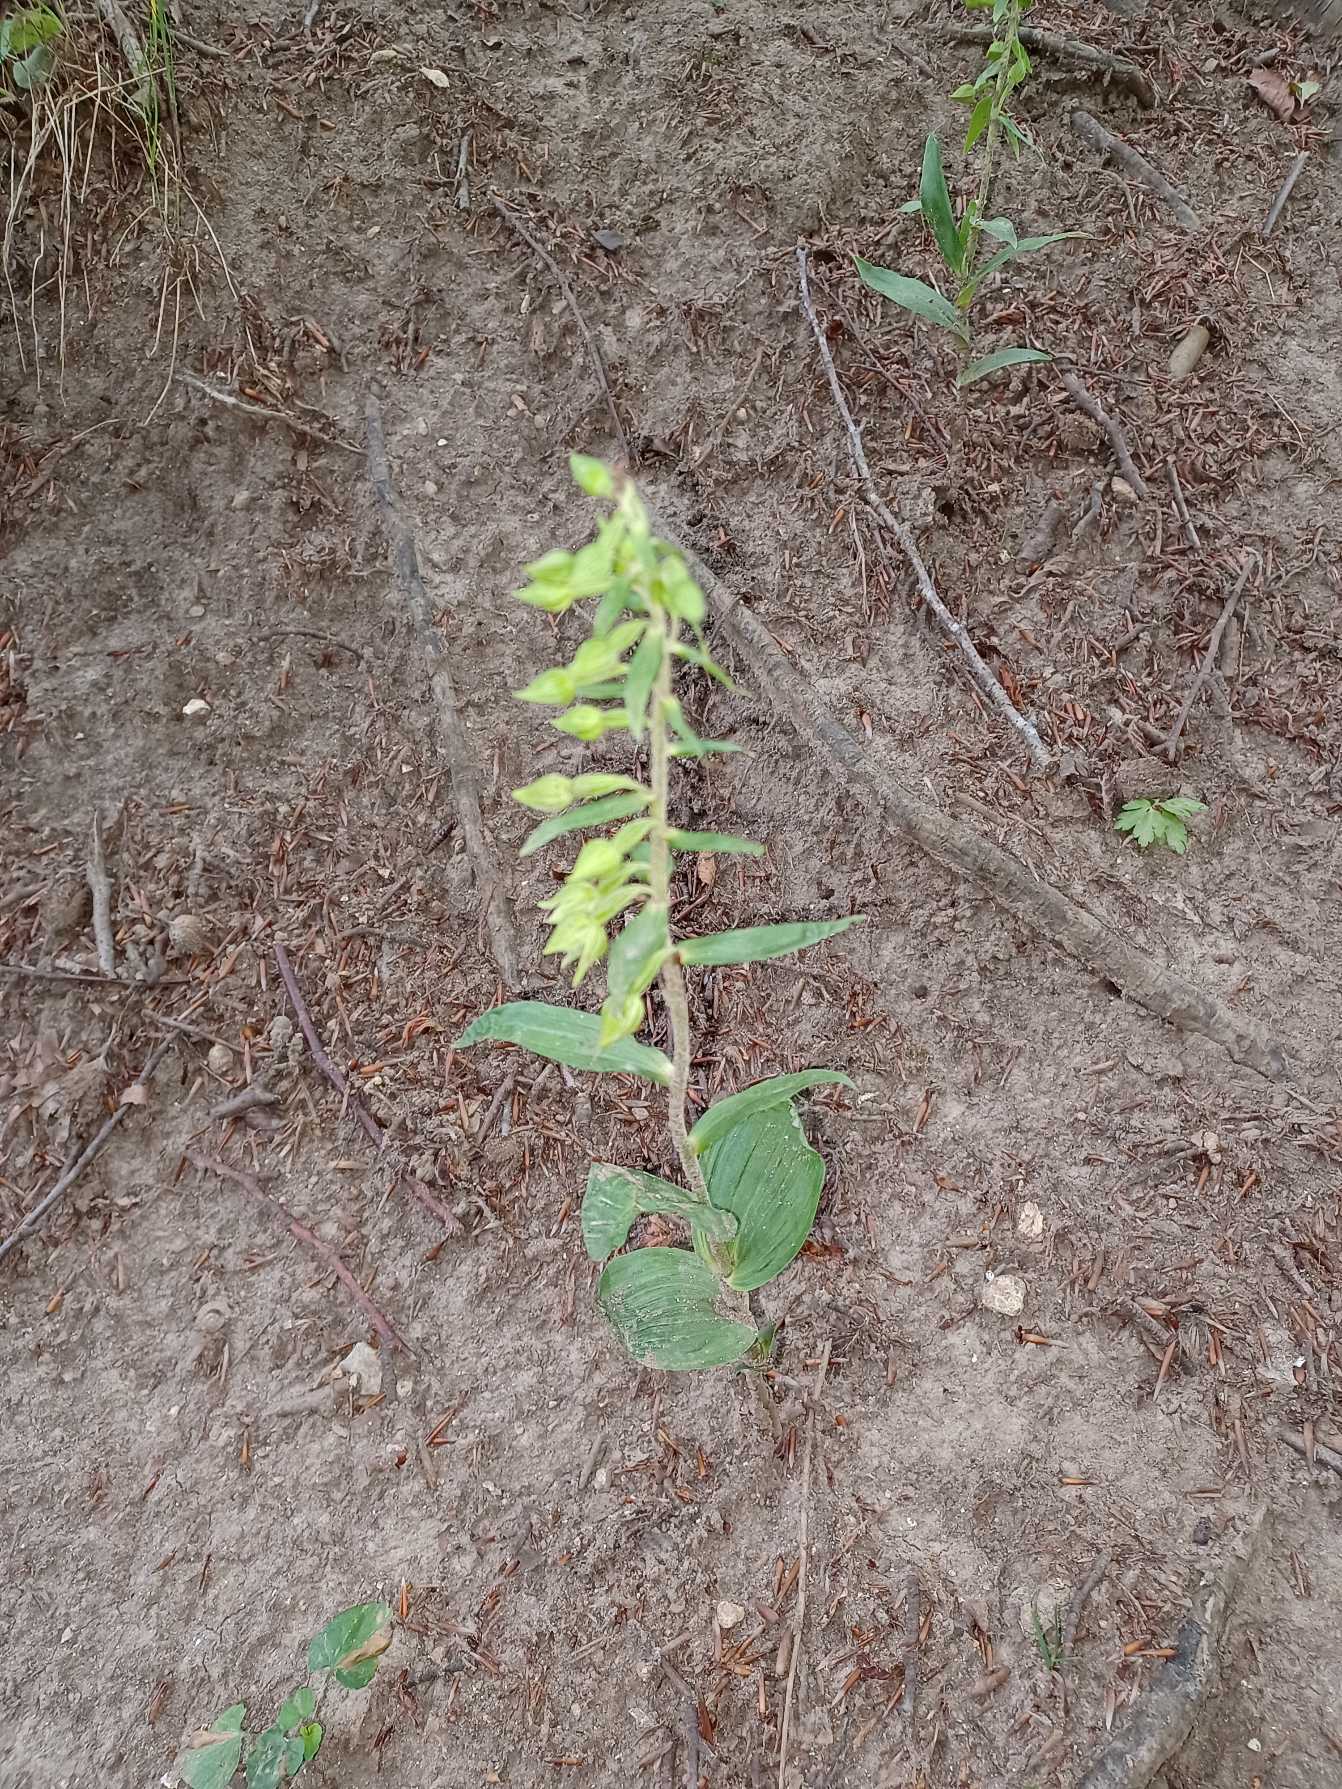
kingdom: Plantae
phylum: Tracheophyta
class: Liliopsida
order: Asparagales
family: Orchidaceae
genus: Epipactis
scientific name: Epipactis leptochila
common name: Storblomstret hullæbe
